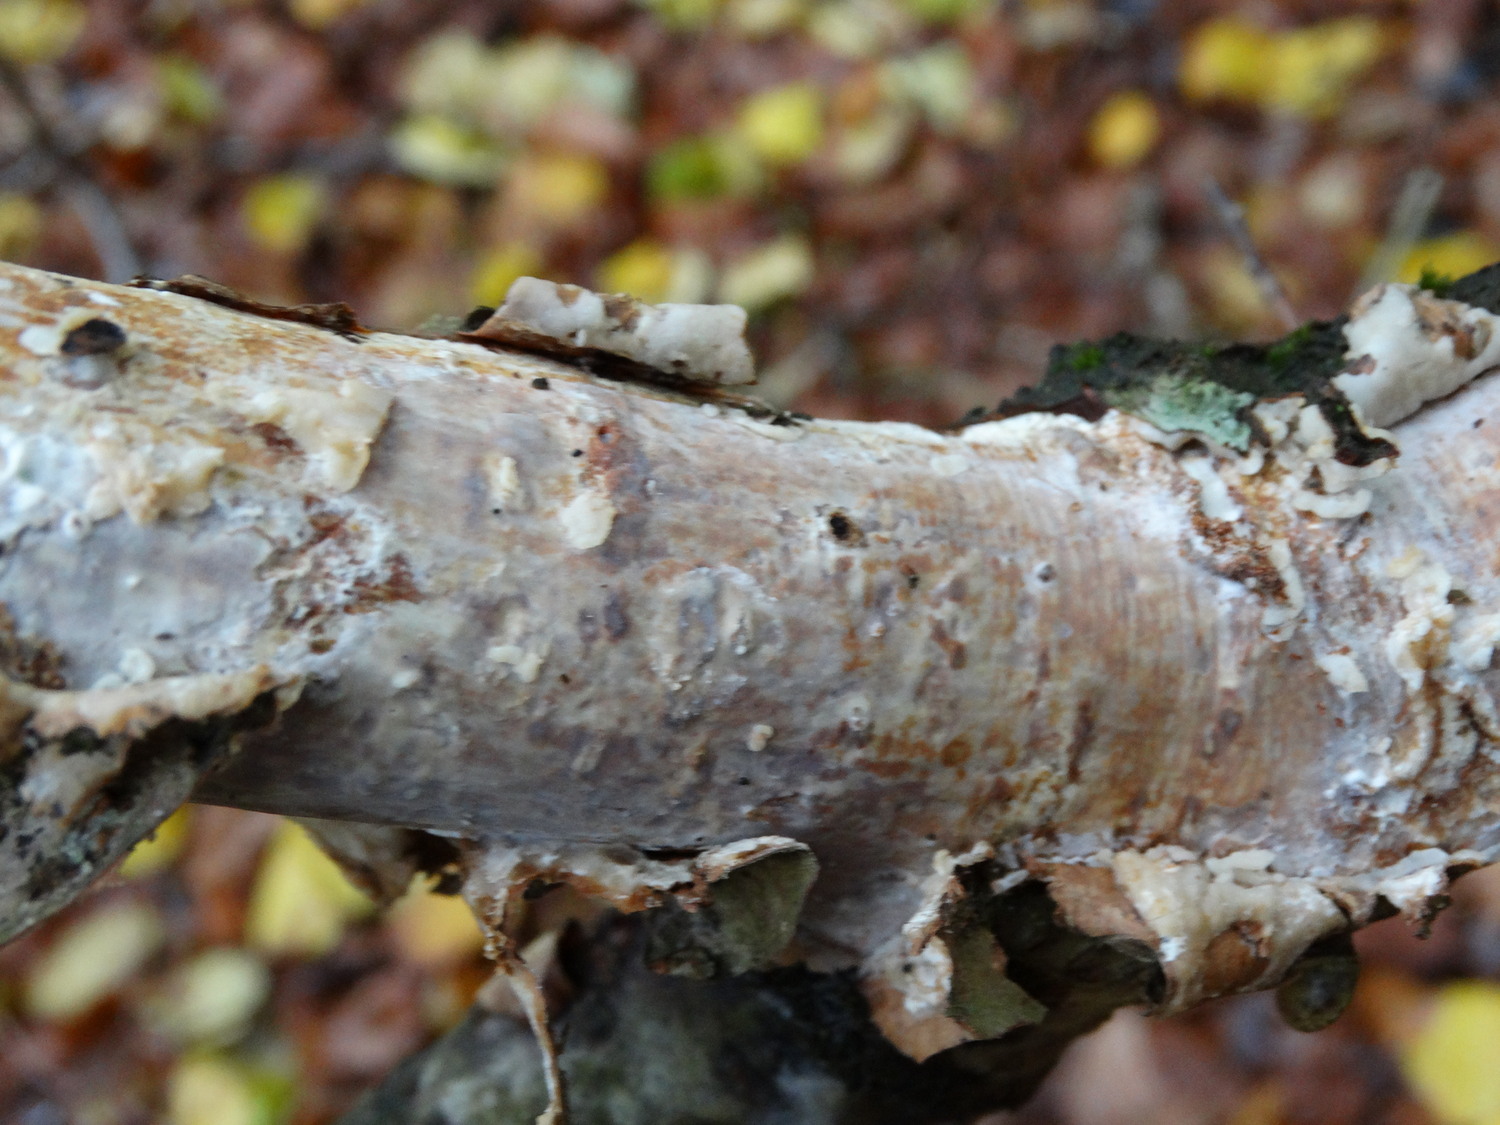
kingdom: Fungi
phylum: Basidiomycota
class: Agaricomycetes
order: Corticiales
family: Vuilleminiaceae
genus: Vuilleminia
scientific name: Vuilleminia coryli
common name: hassel-barksprænger
